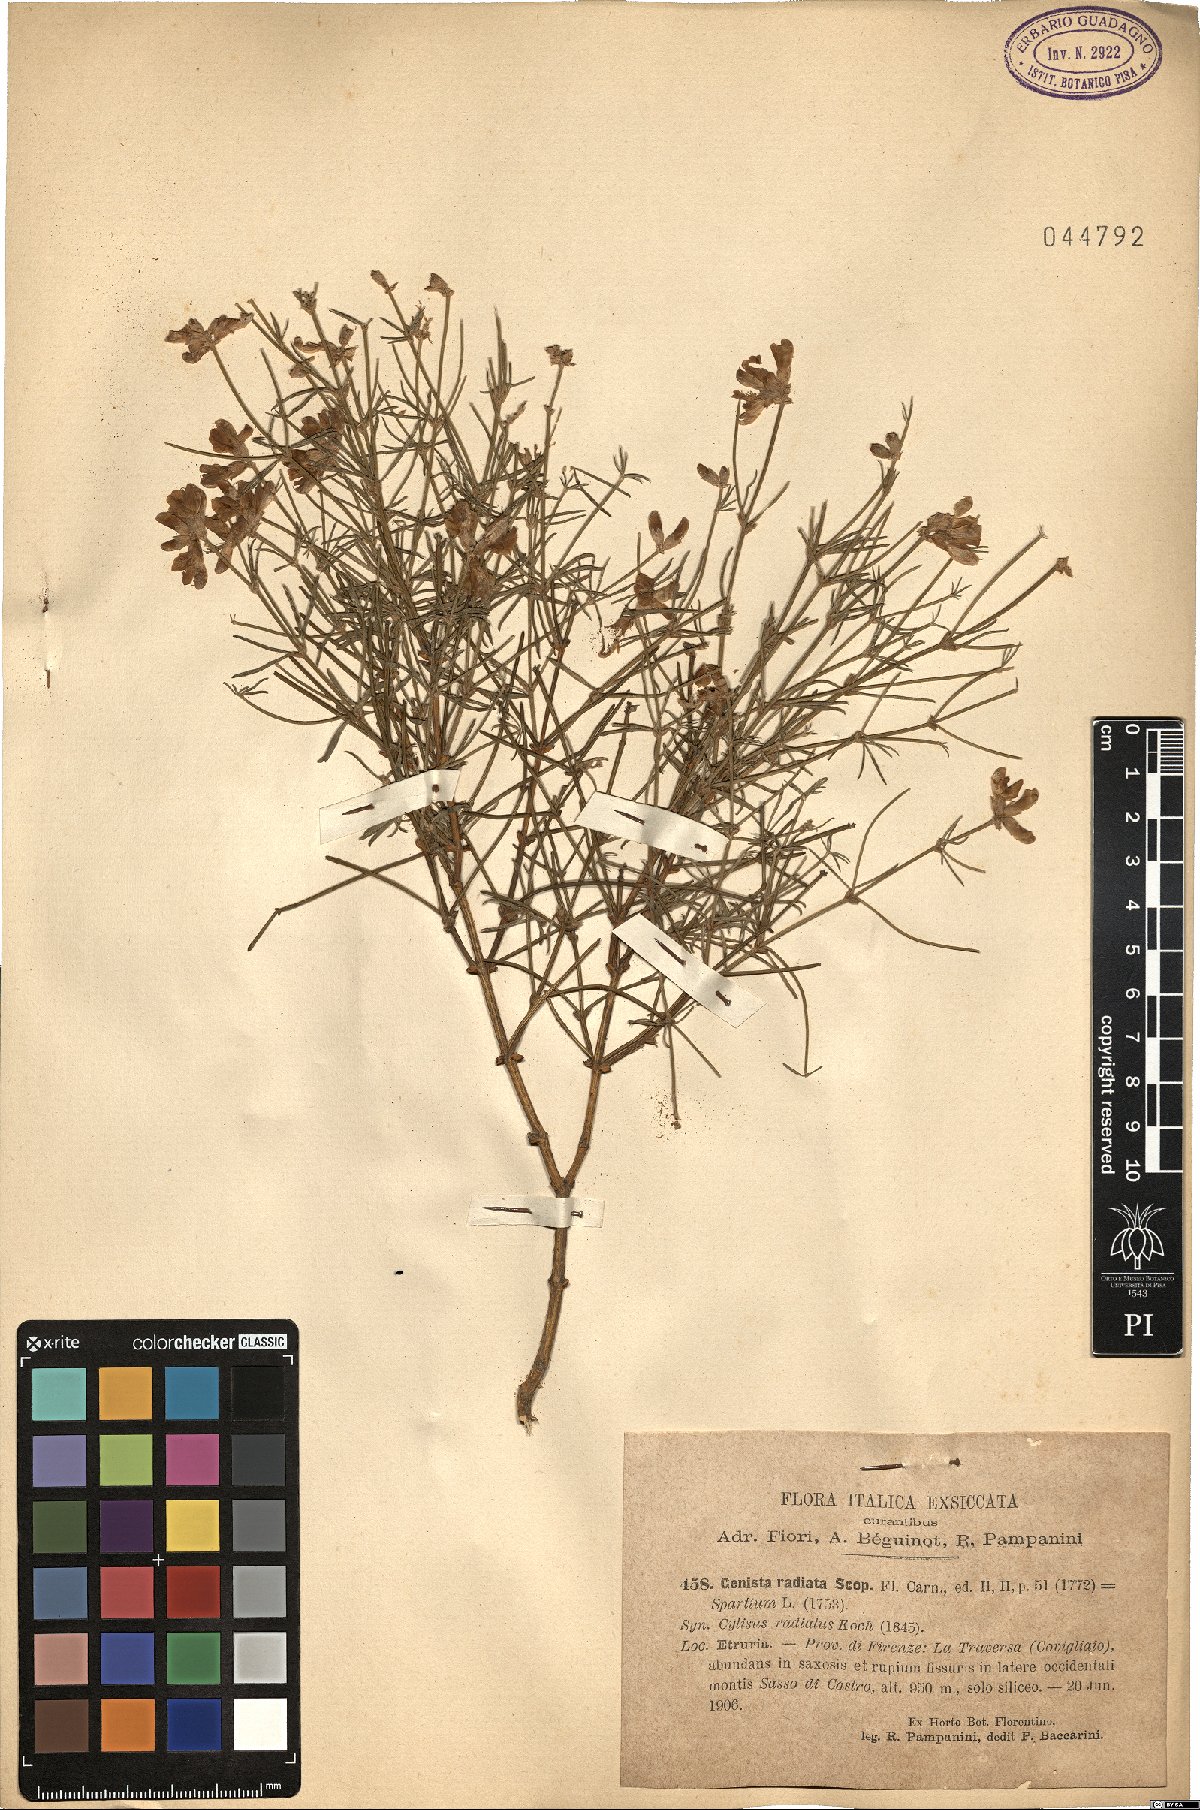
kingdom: Plantae
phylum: Tracheophyta
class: Magnoliopsida
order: Fabales
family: Fabaceae
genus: Genista
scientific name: Genista radiata
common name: Southern greenweed
